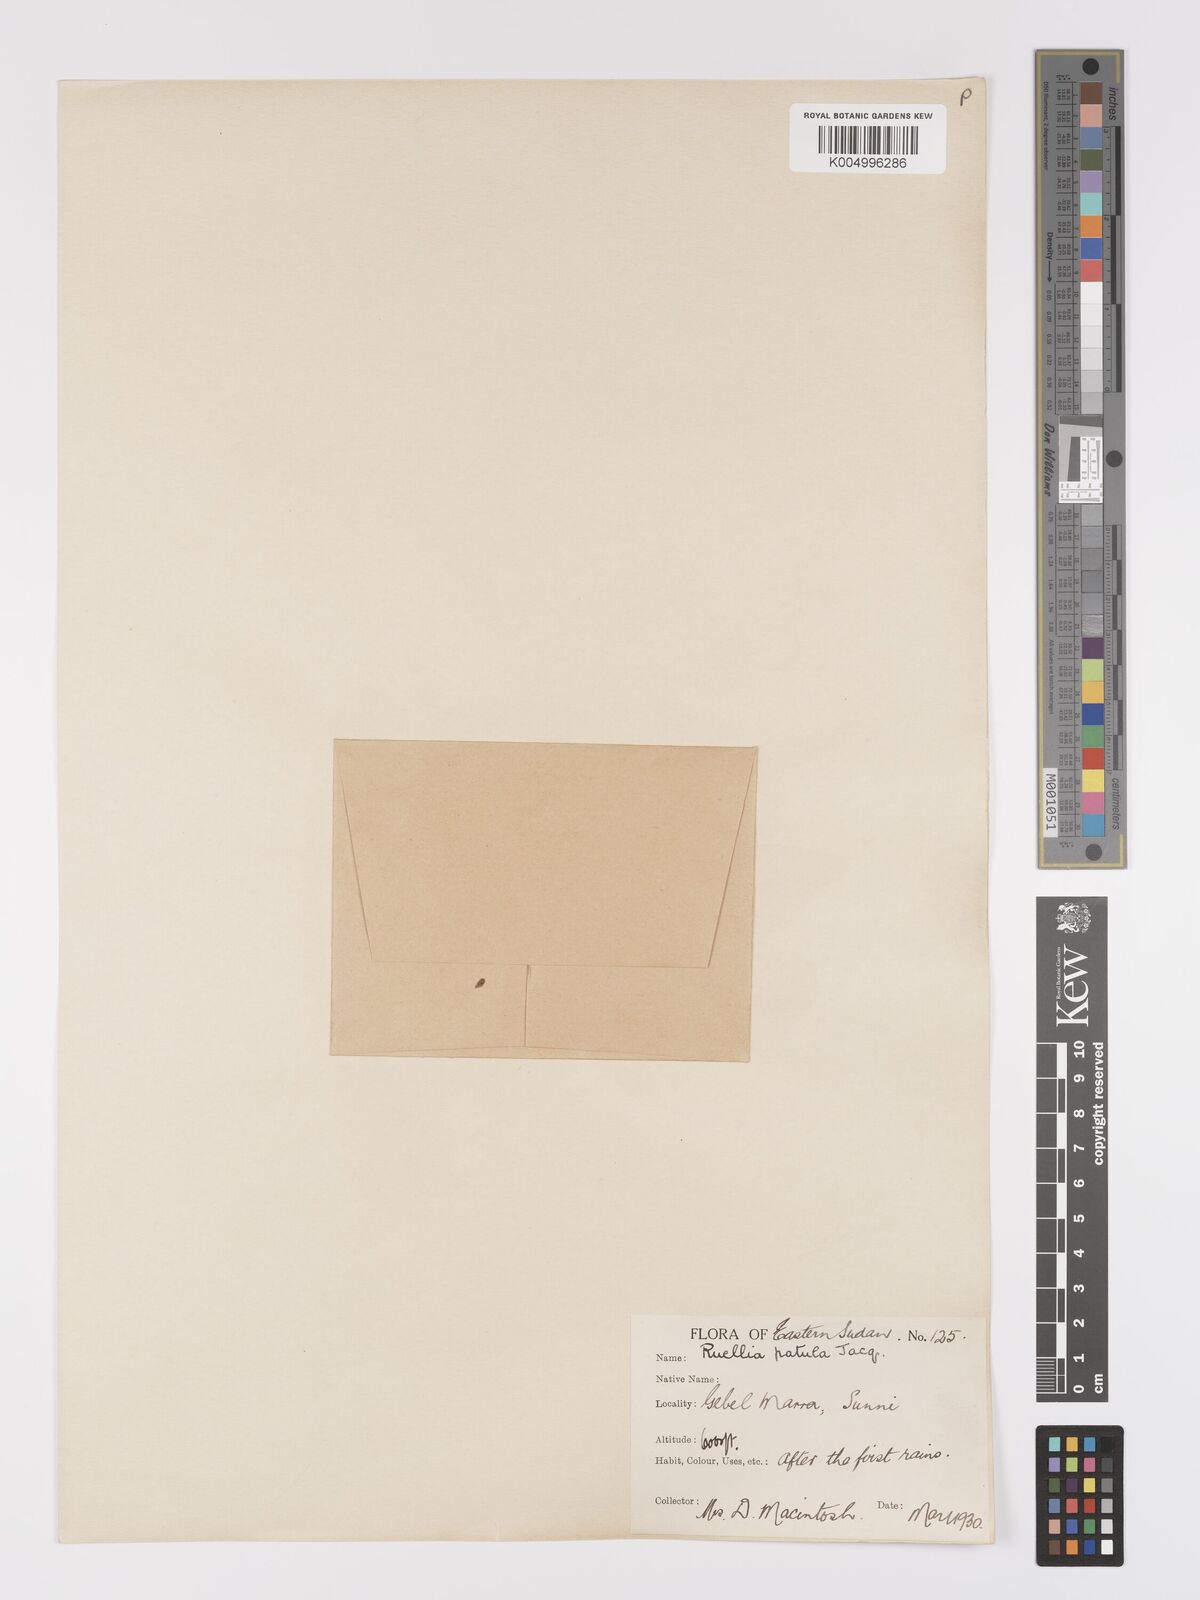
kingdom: Plantae
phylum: Tracheophyta
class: Magnoliopsida
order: Lamiales
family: Acanthaceae
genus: Ruellia
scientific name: Ruellia patula
